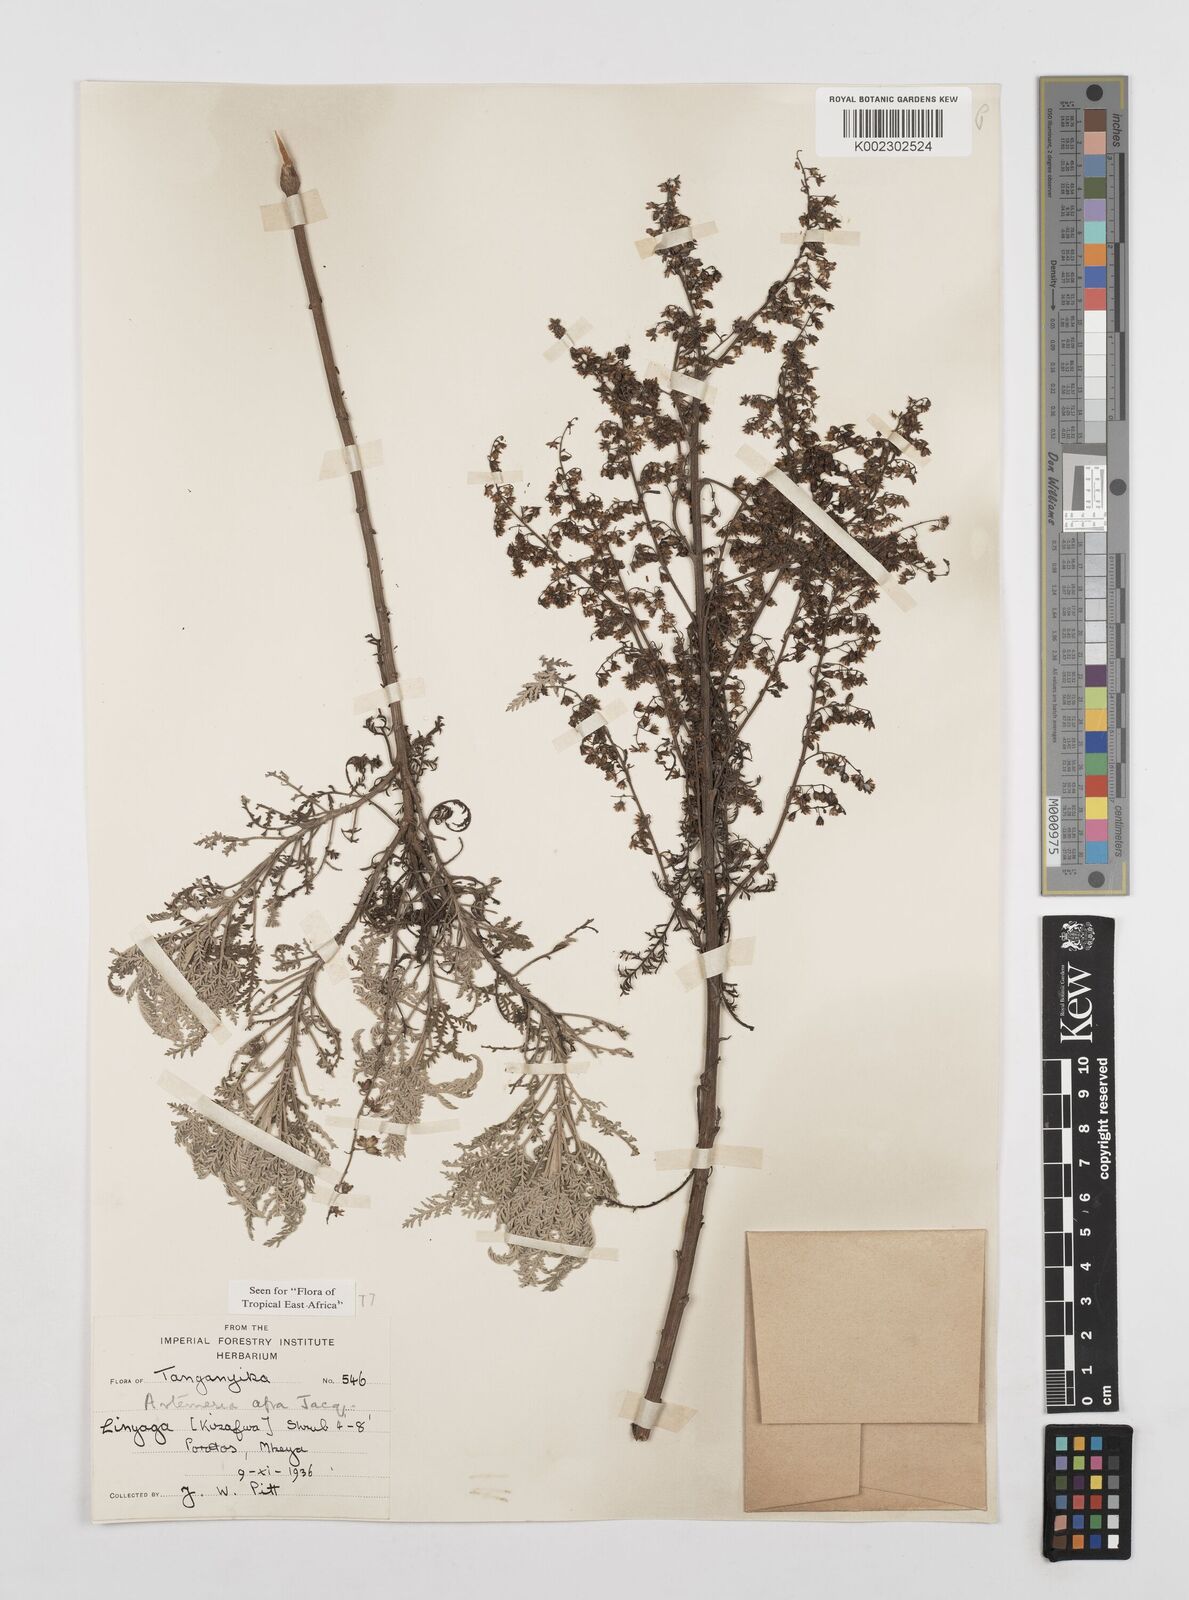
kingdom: Plantae
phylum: Tracheophyta
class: Magnoliopsida
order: Asterales
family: Asteraceae
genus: Artemisia
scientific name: Artemisia afra
